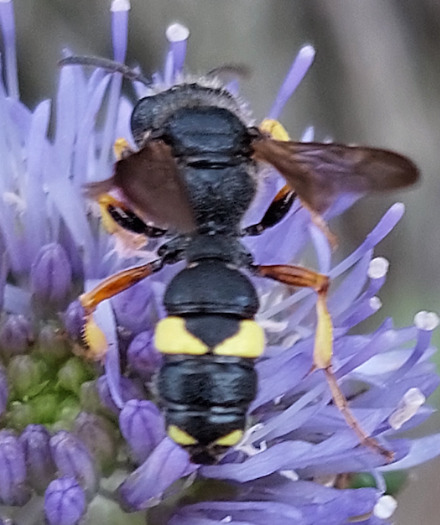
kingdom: Animalia
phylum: Arthropoda
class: Insecta
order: Hymenoptera
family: Crabronidae
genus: Cerceris
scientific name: Cerceris rybyensis
